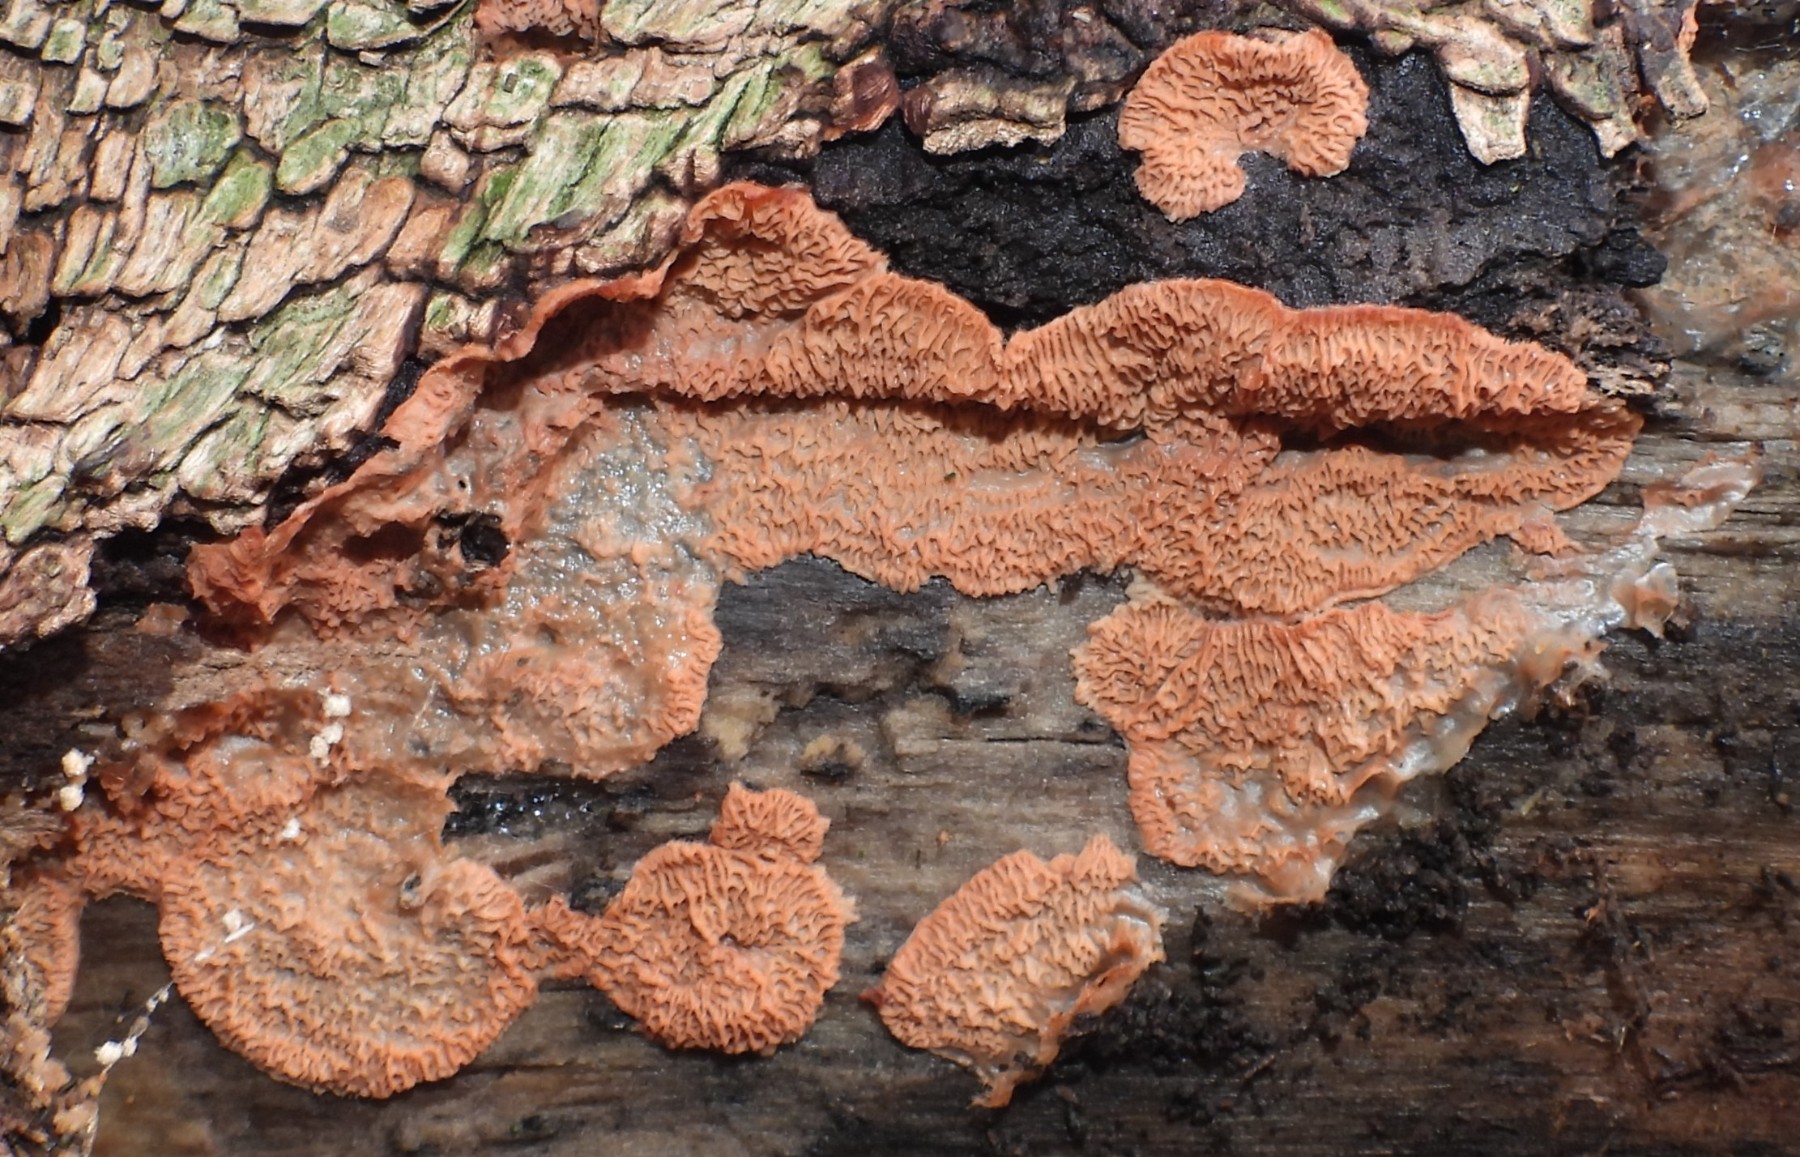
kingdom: Fungi
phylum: Basidiomycota
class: Agaricomycetes
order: Polyporales
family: Meruliaceae
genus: Phlebia
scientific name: Phlebia tremellosa
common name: bævrende åresvamp
